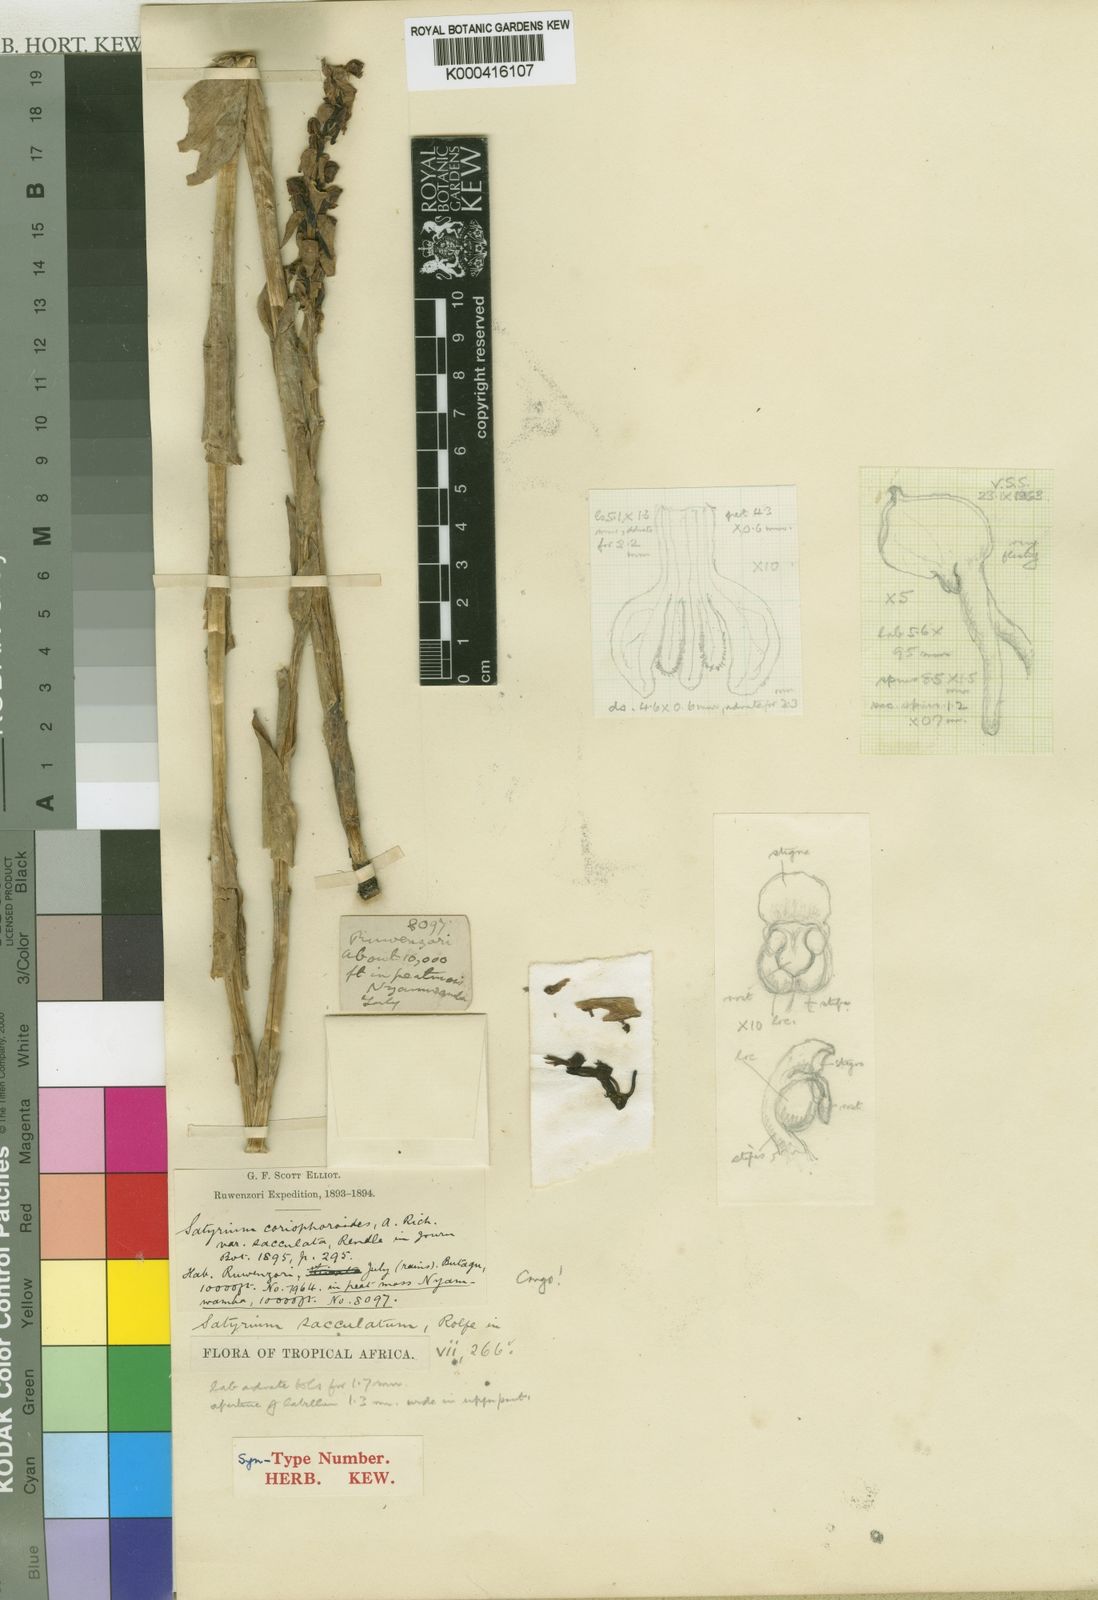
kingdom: Plantae
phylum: Tracheophyta
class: Liliopsida
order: Asparagales
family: Orchidaceae
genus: Satyrium
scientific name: Satyrium coriophoroides
